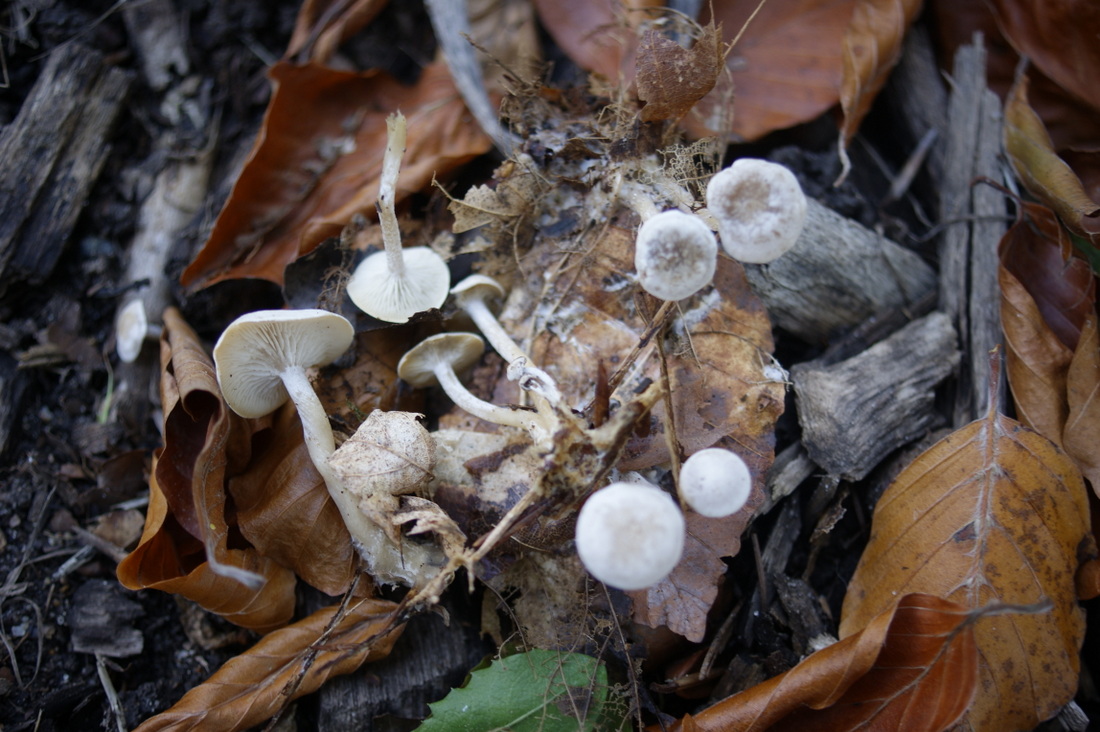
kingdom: Fungi
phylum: Basidiomycota
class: Agaricomycetes
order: Agaricales
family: Tricholomataceae
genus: Leucocybe
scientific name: Leucocybe candicans
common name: kridt-tragthat
